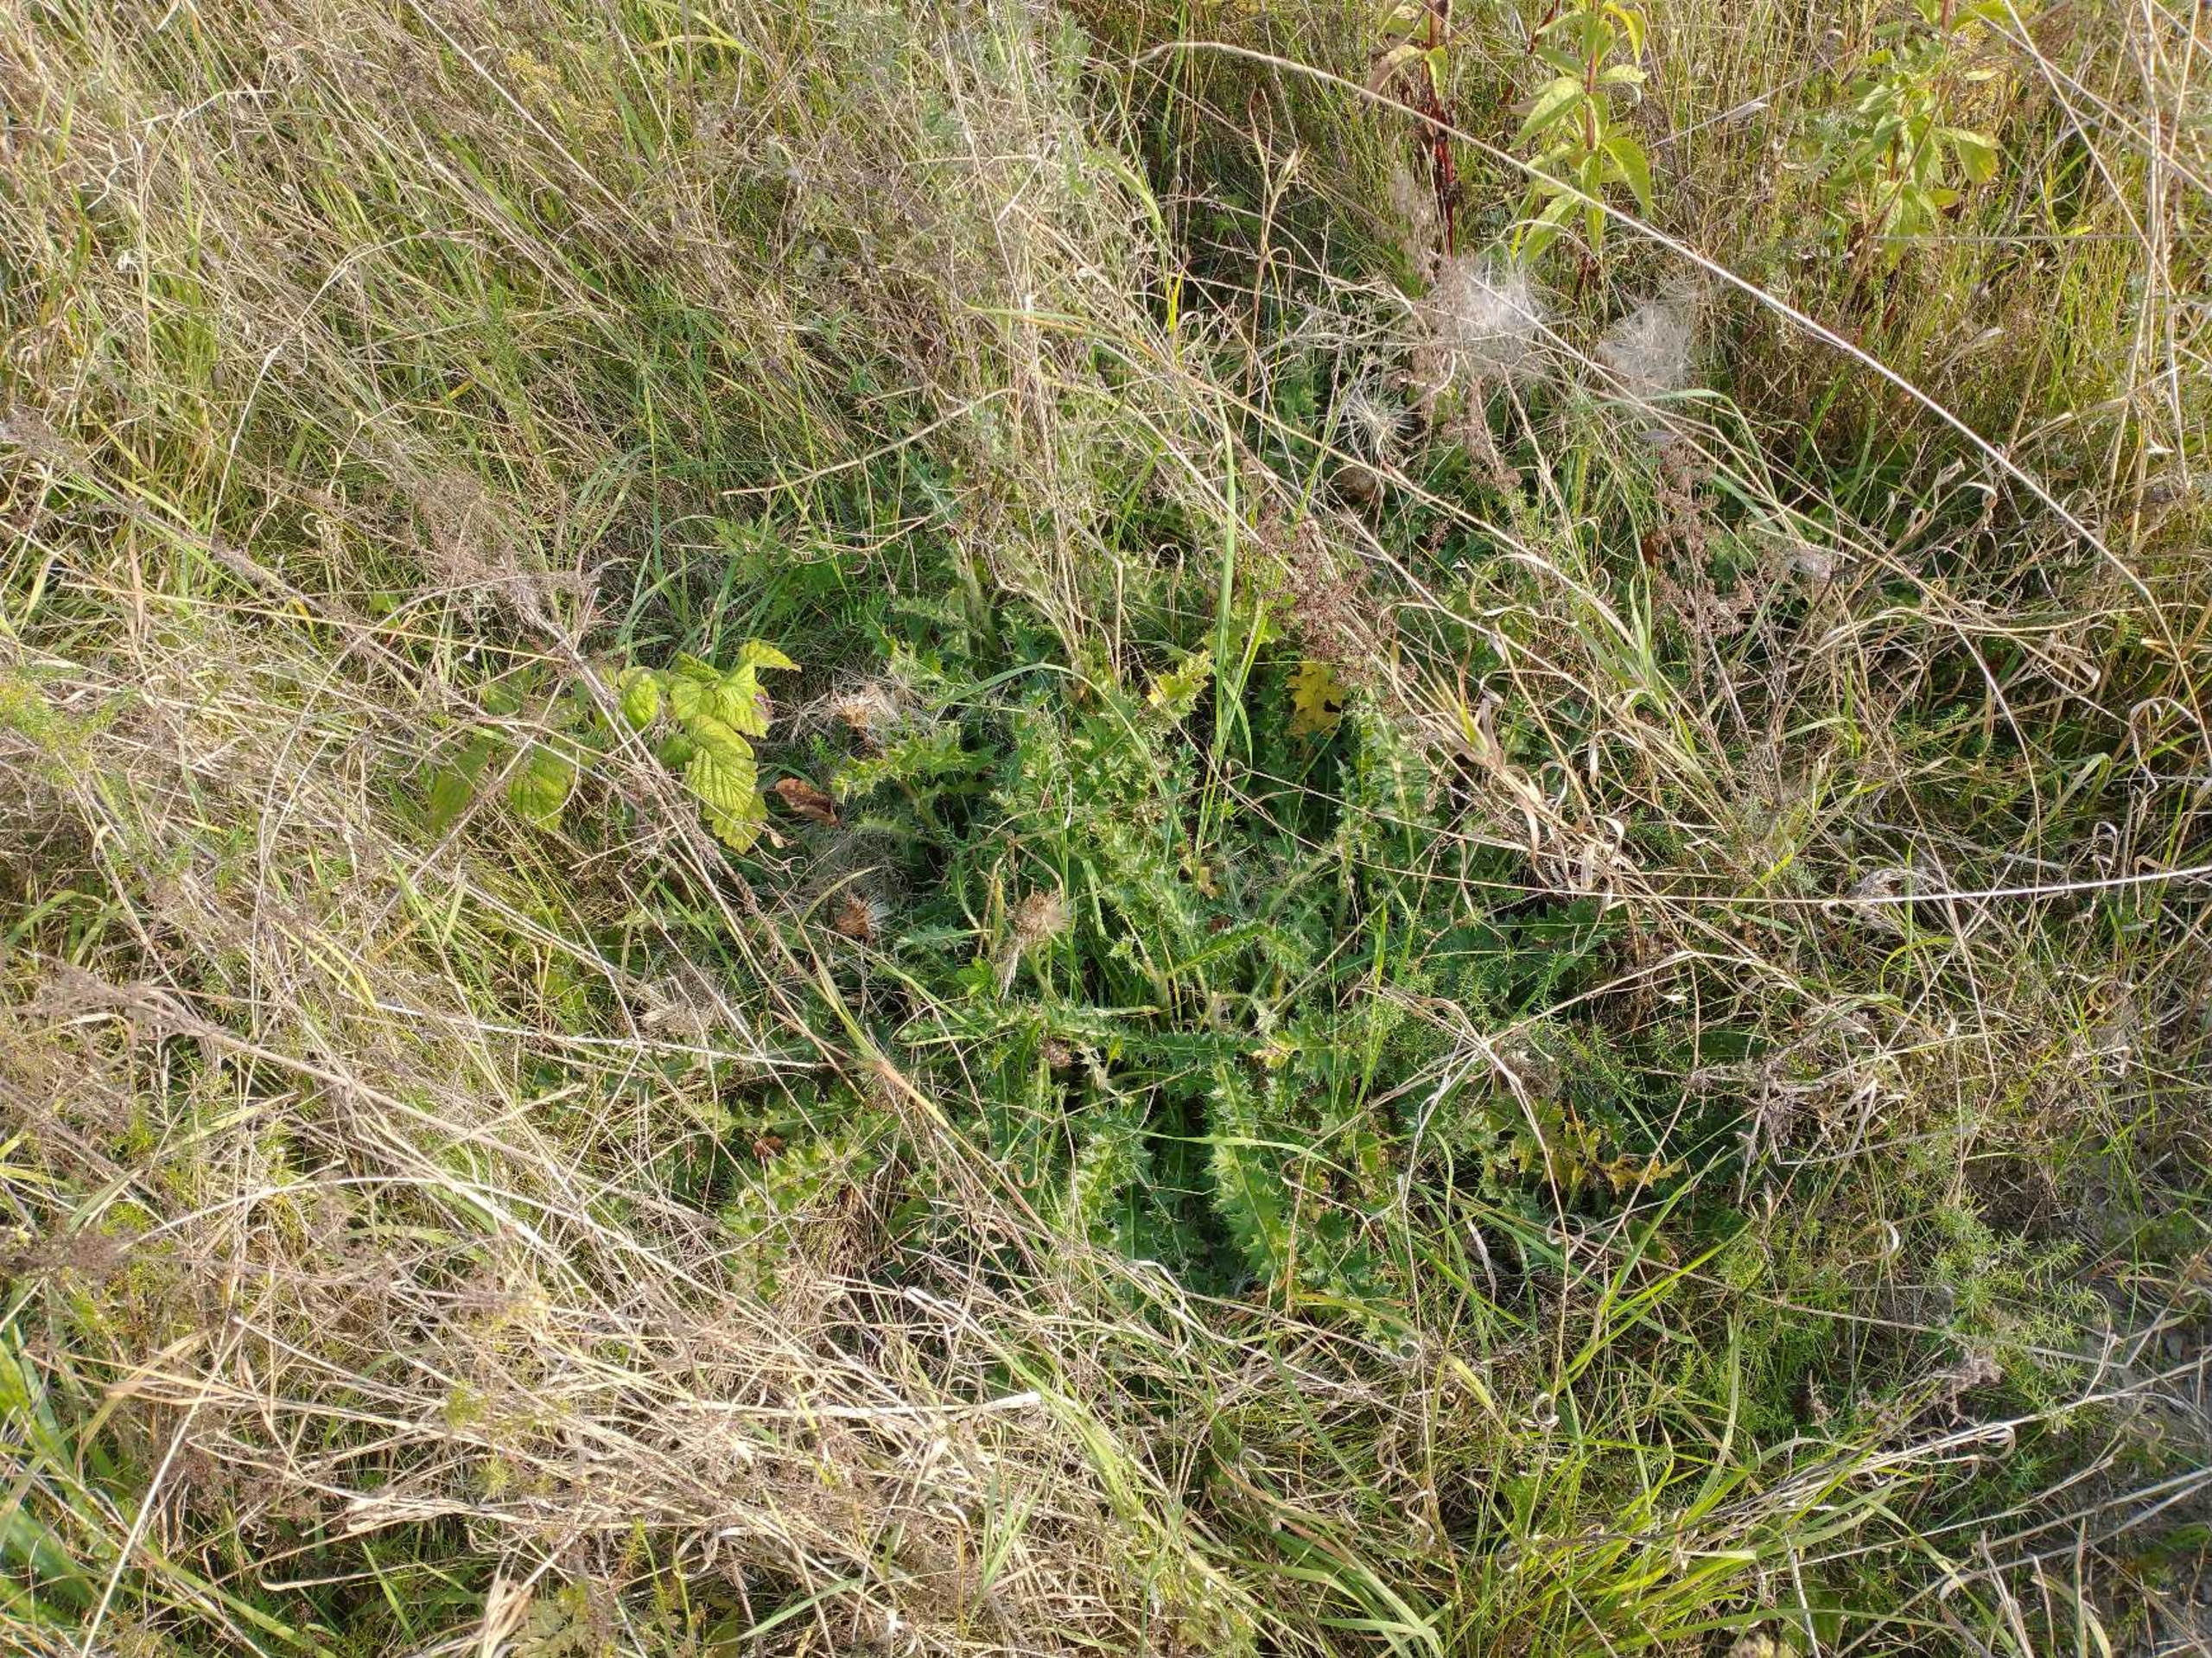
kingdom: Plantae
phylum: Tracheophyta
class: Magnoliopsida
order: Asterales
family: Asteraceae
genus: Cirsium
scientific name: Cirsium acaule
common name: Lav tidsel
